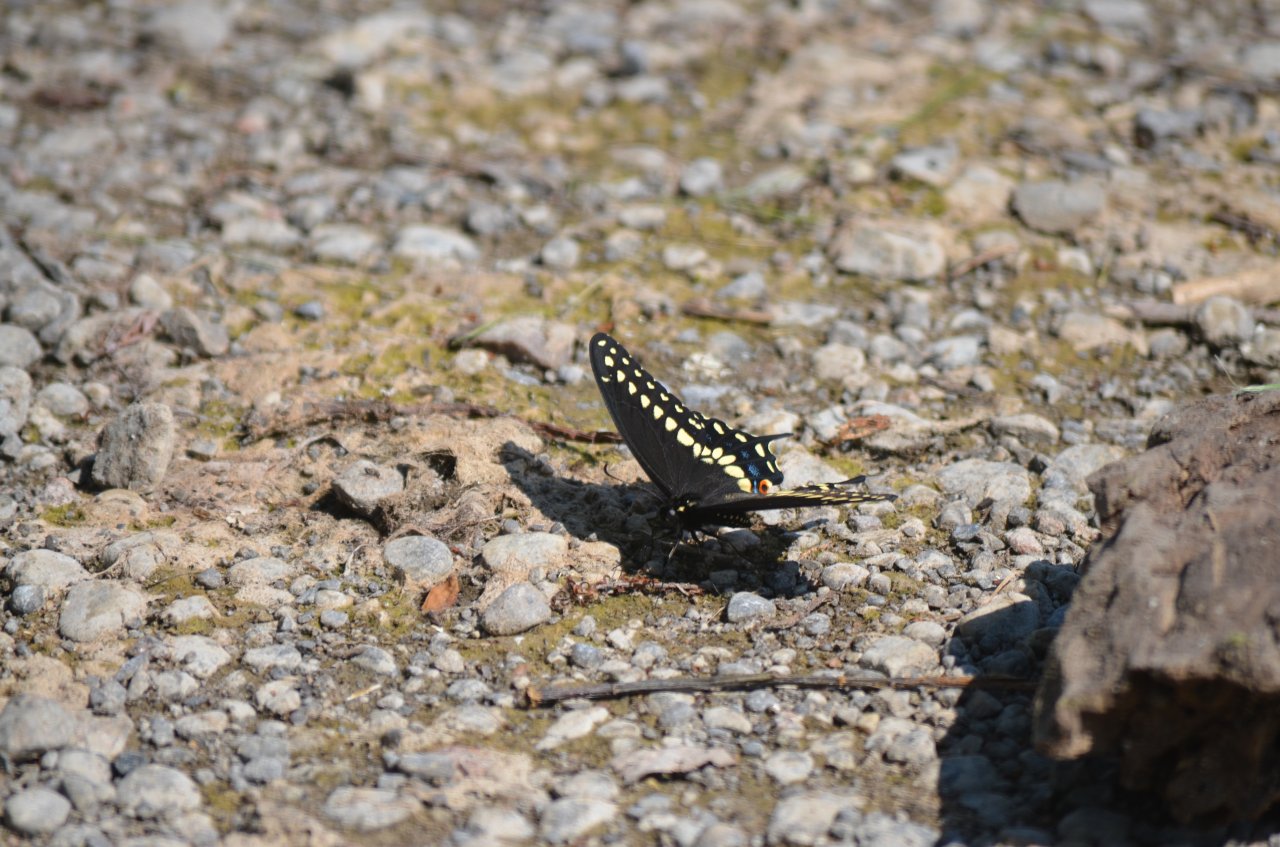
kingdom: Animalia
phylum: Arthropoda
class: Insecta
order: Lepidoptera
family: Papilionidae
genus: Papilio
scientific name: Papilio polyxenes
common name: Black Swallowtail
